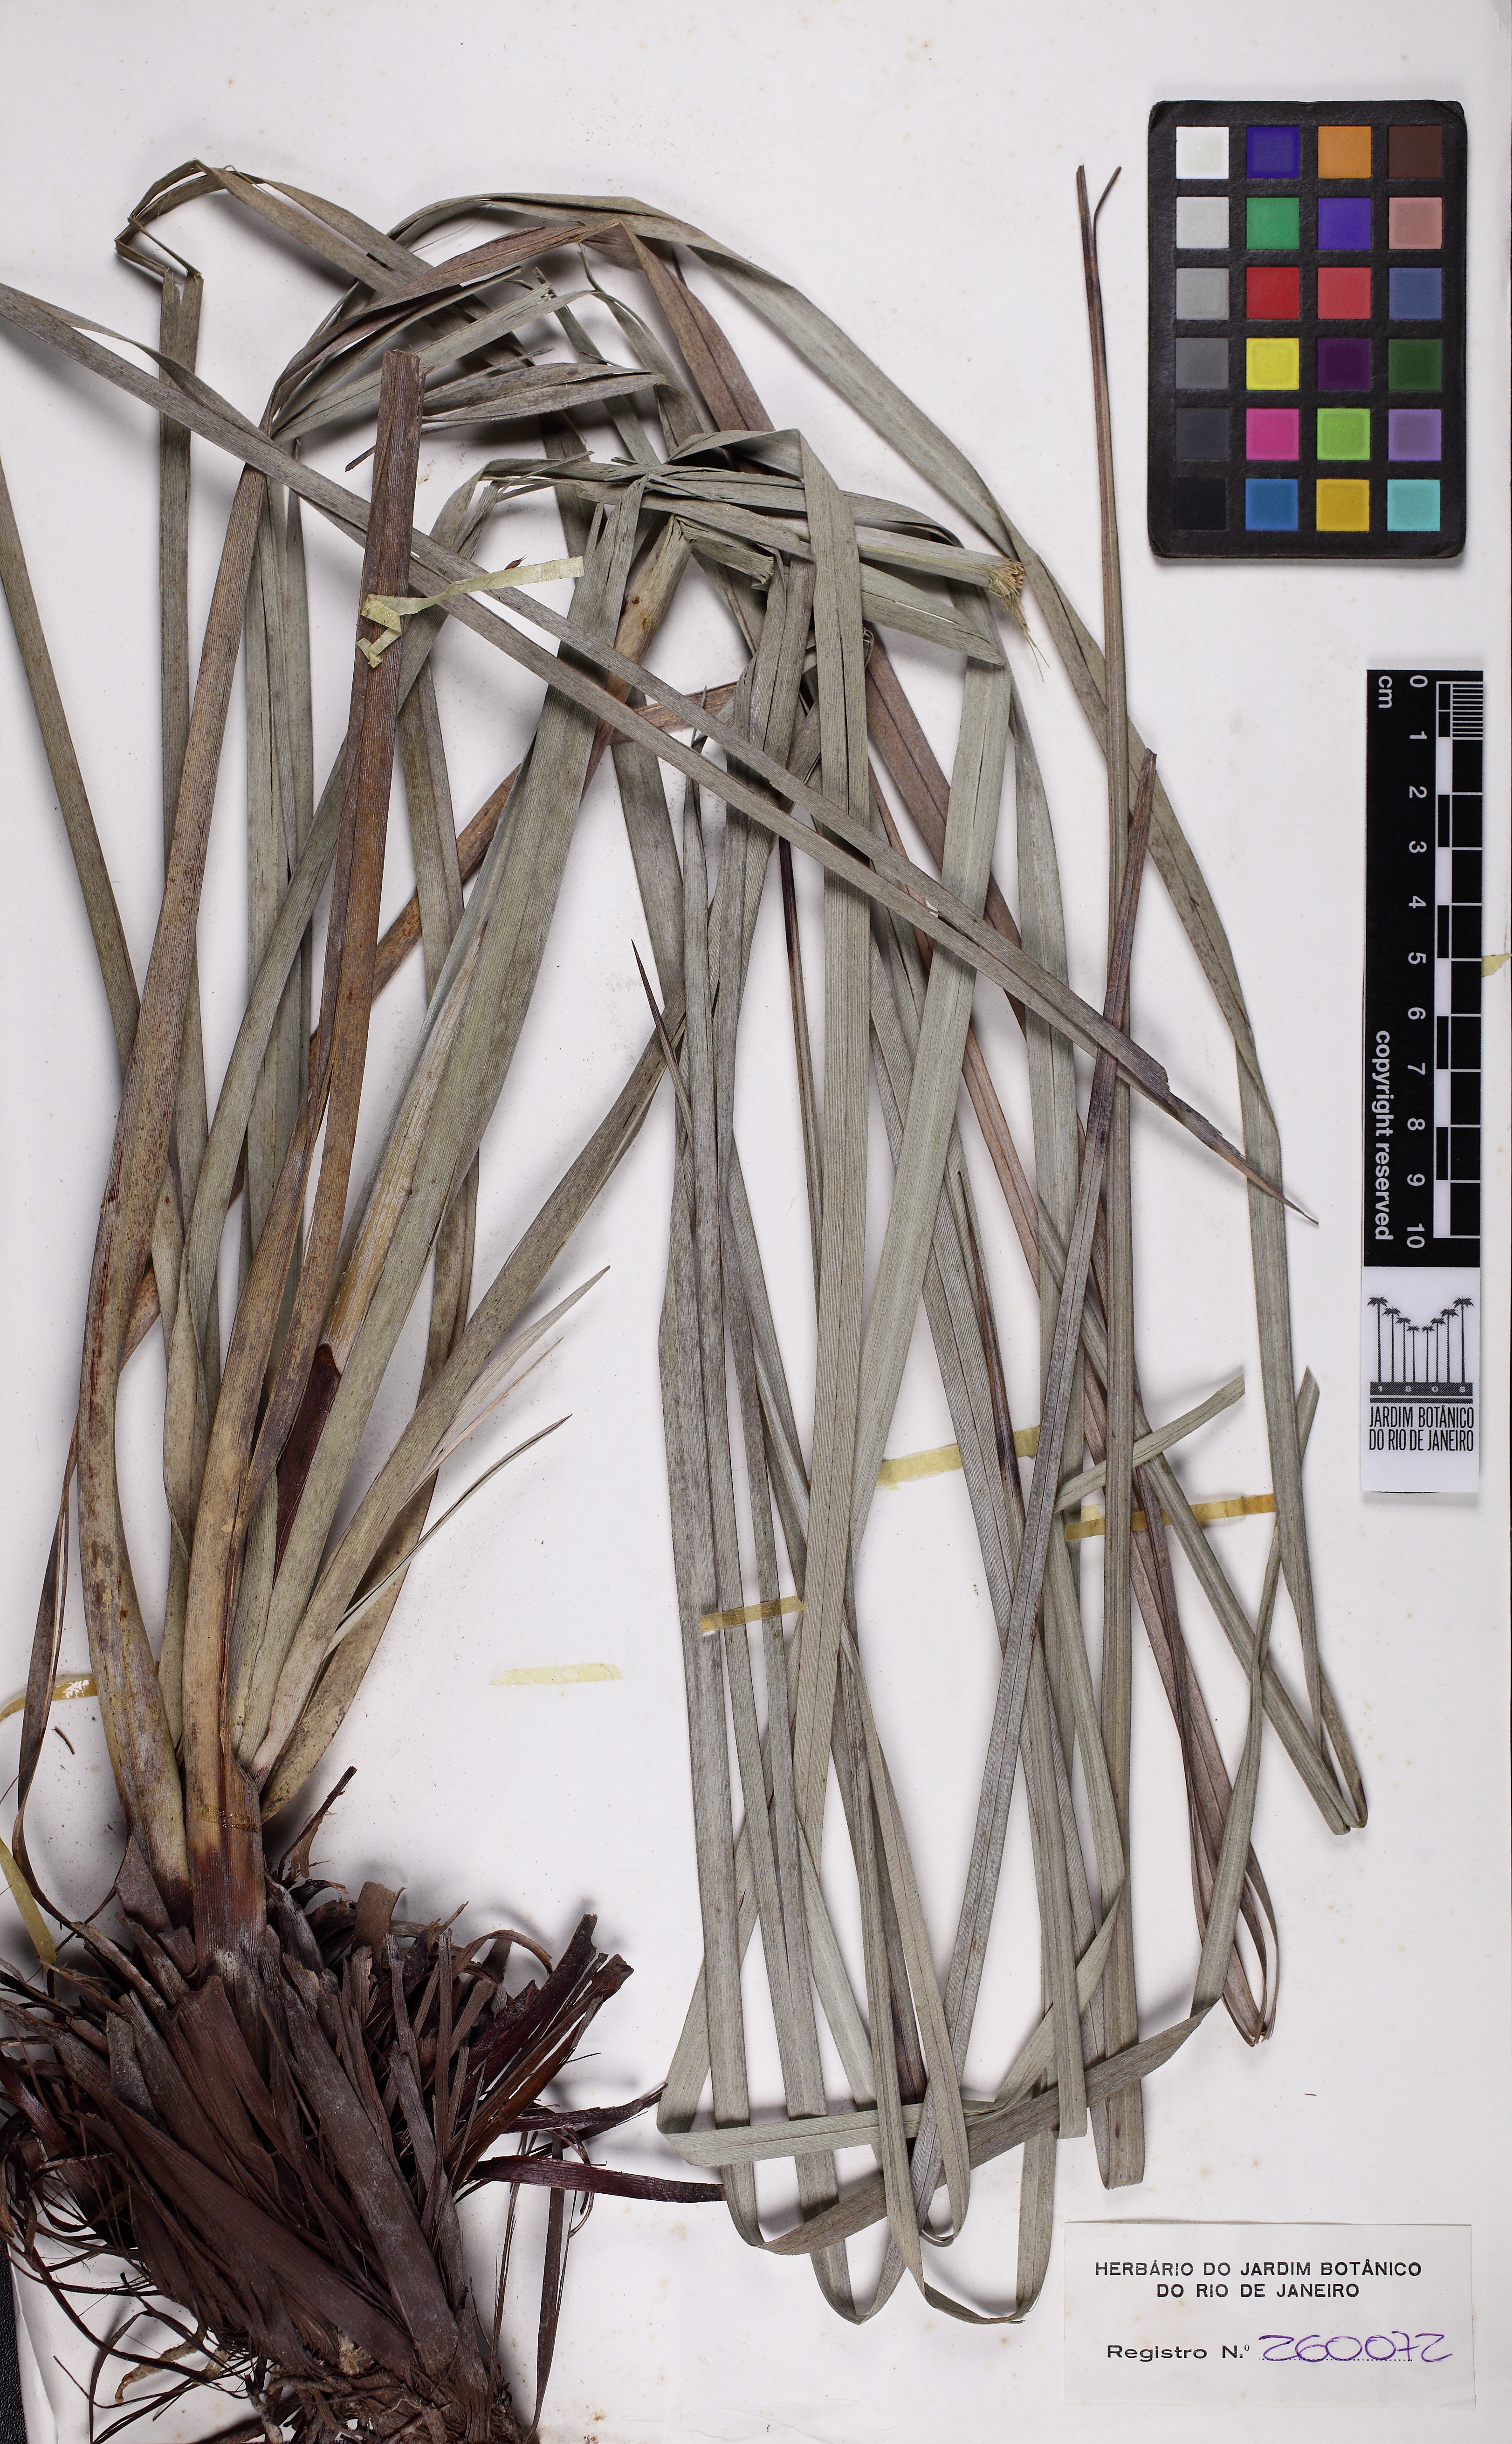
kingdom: Plantae
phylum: Tracheophyta
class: Liliopsida
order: Poales
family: Cyperaceae
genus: Lagenocarpus
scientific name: Lagenocarpus rigidus
